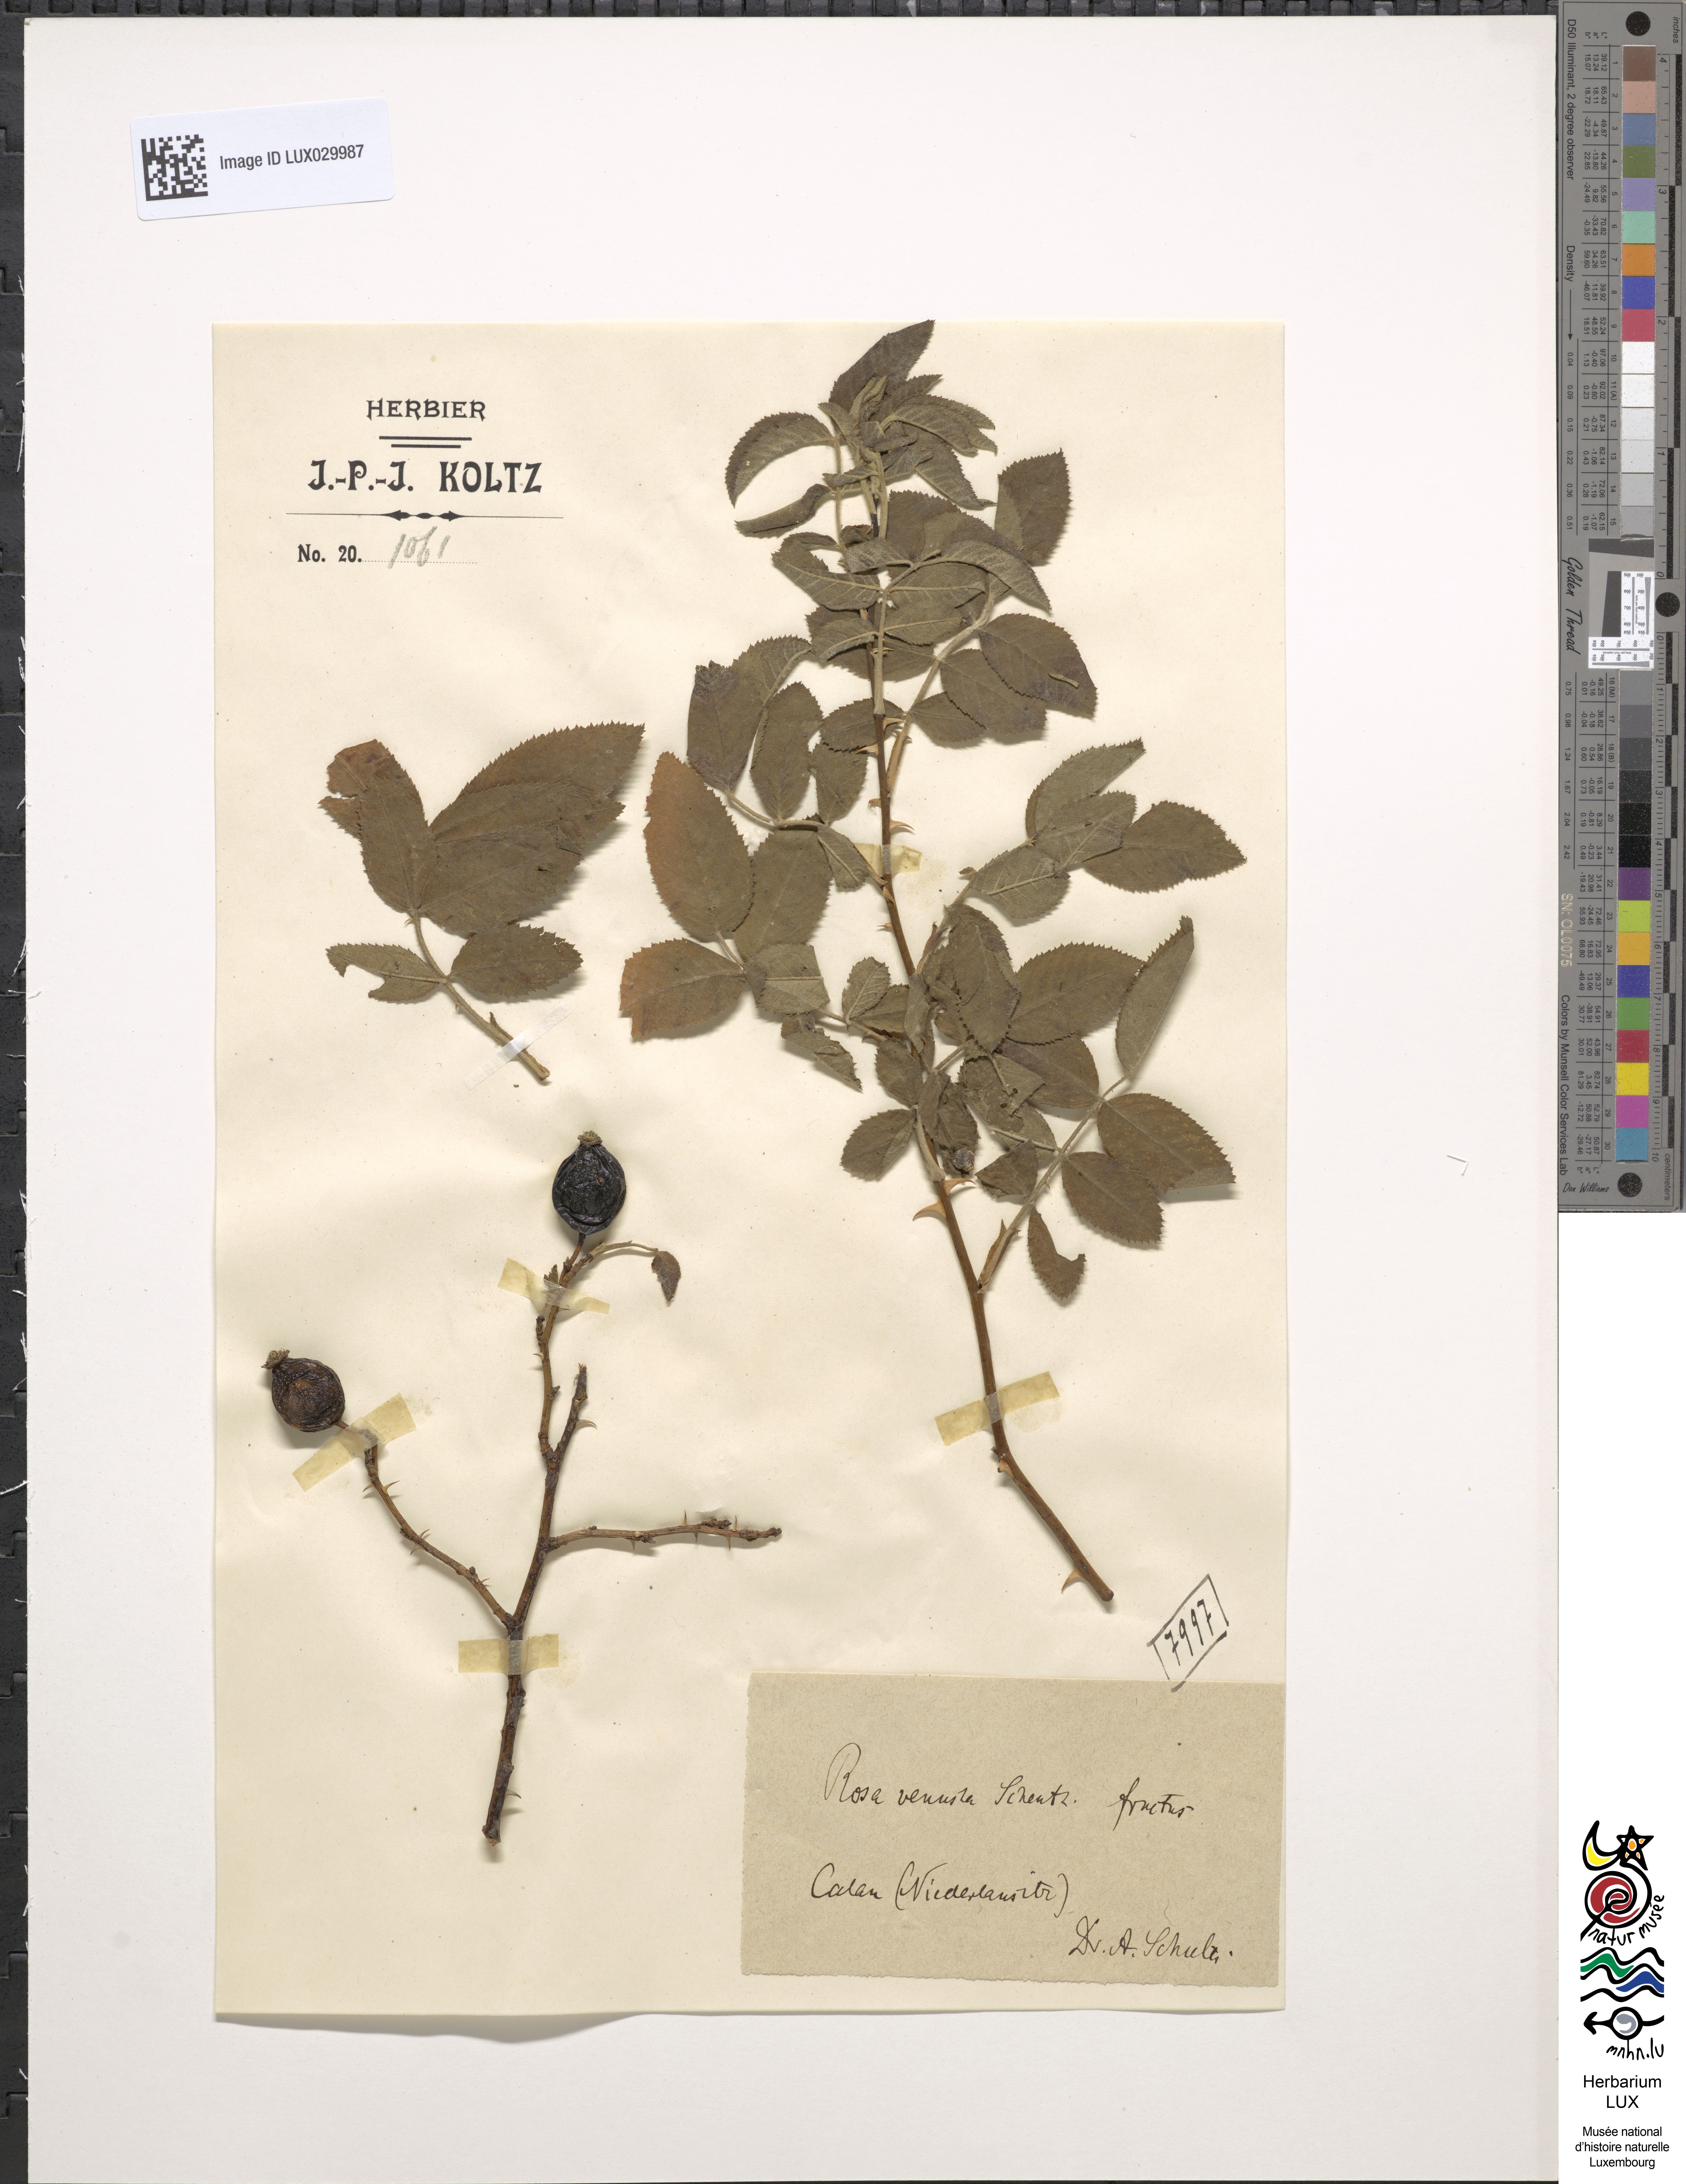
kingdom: Plantae
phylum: Tracheophyta
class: Magnoliopsida
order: Rosales
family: Rosaceae
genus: Rosa
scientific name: Rosa
